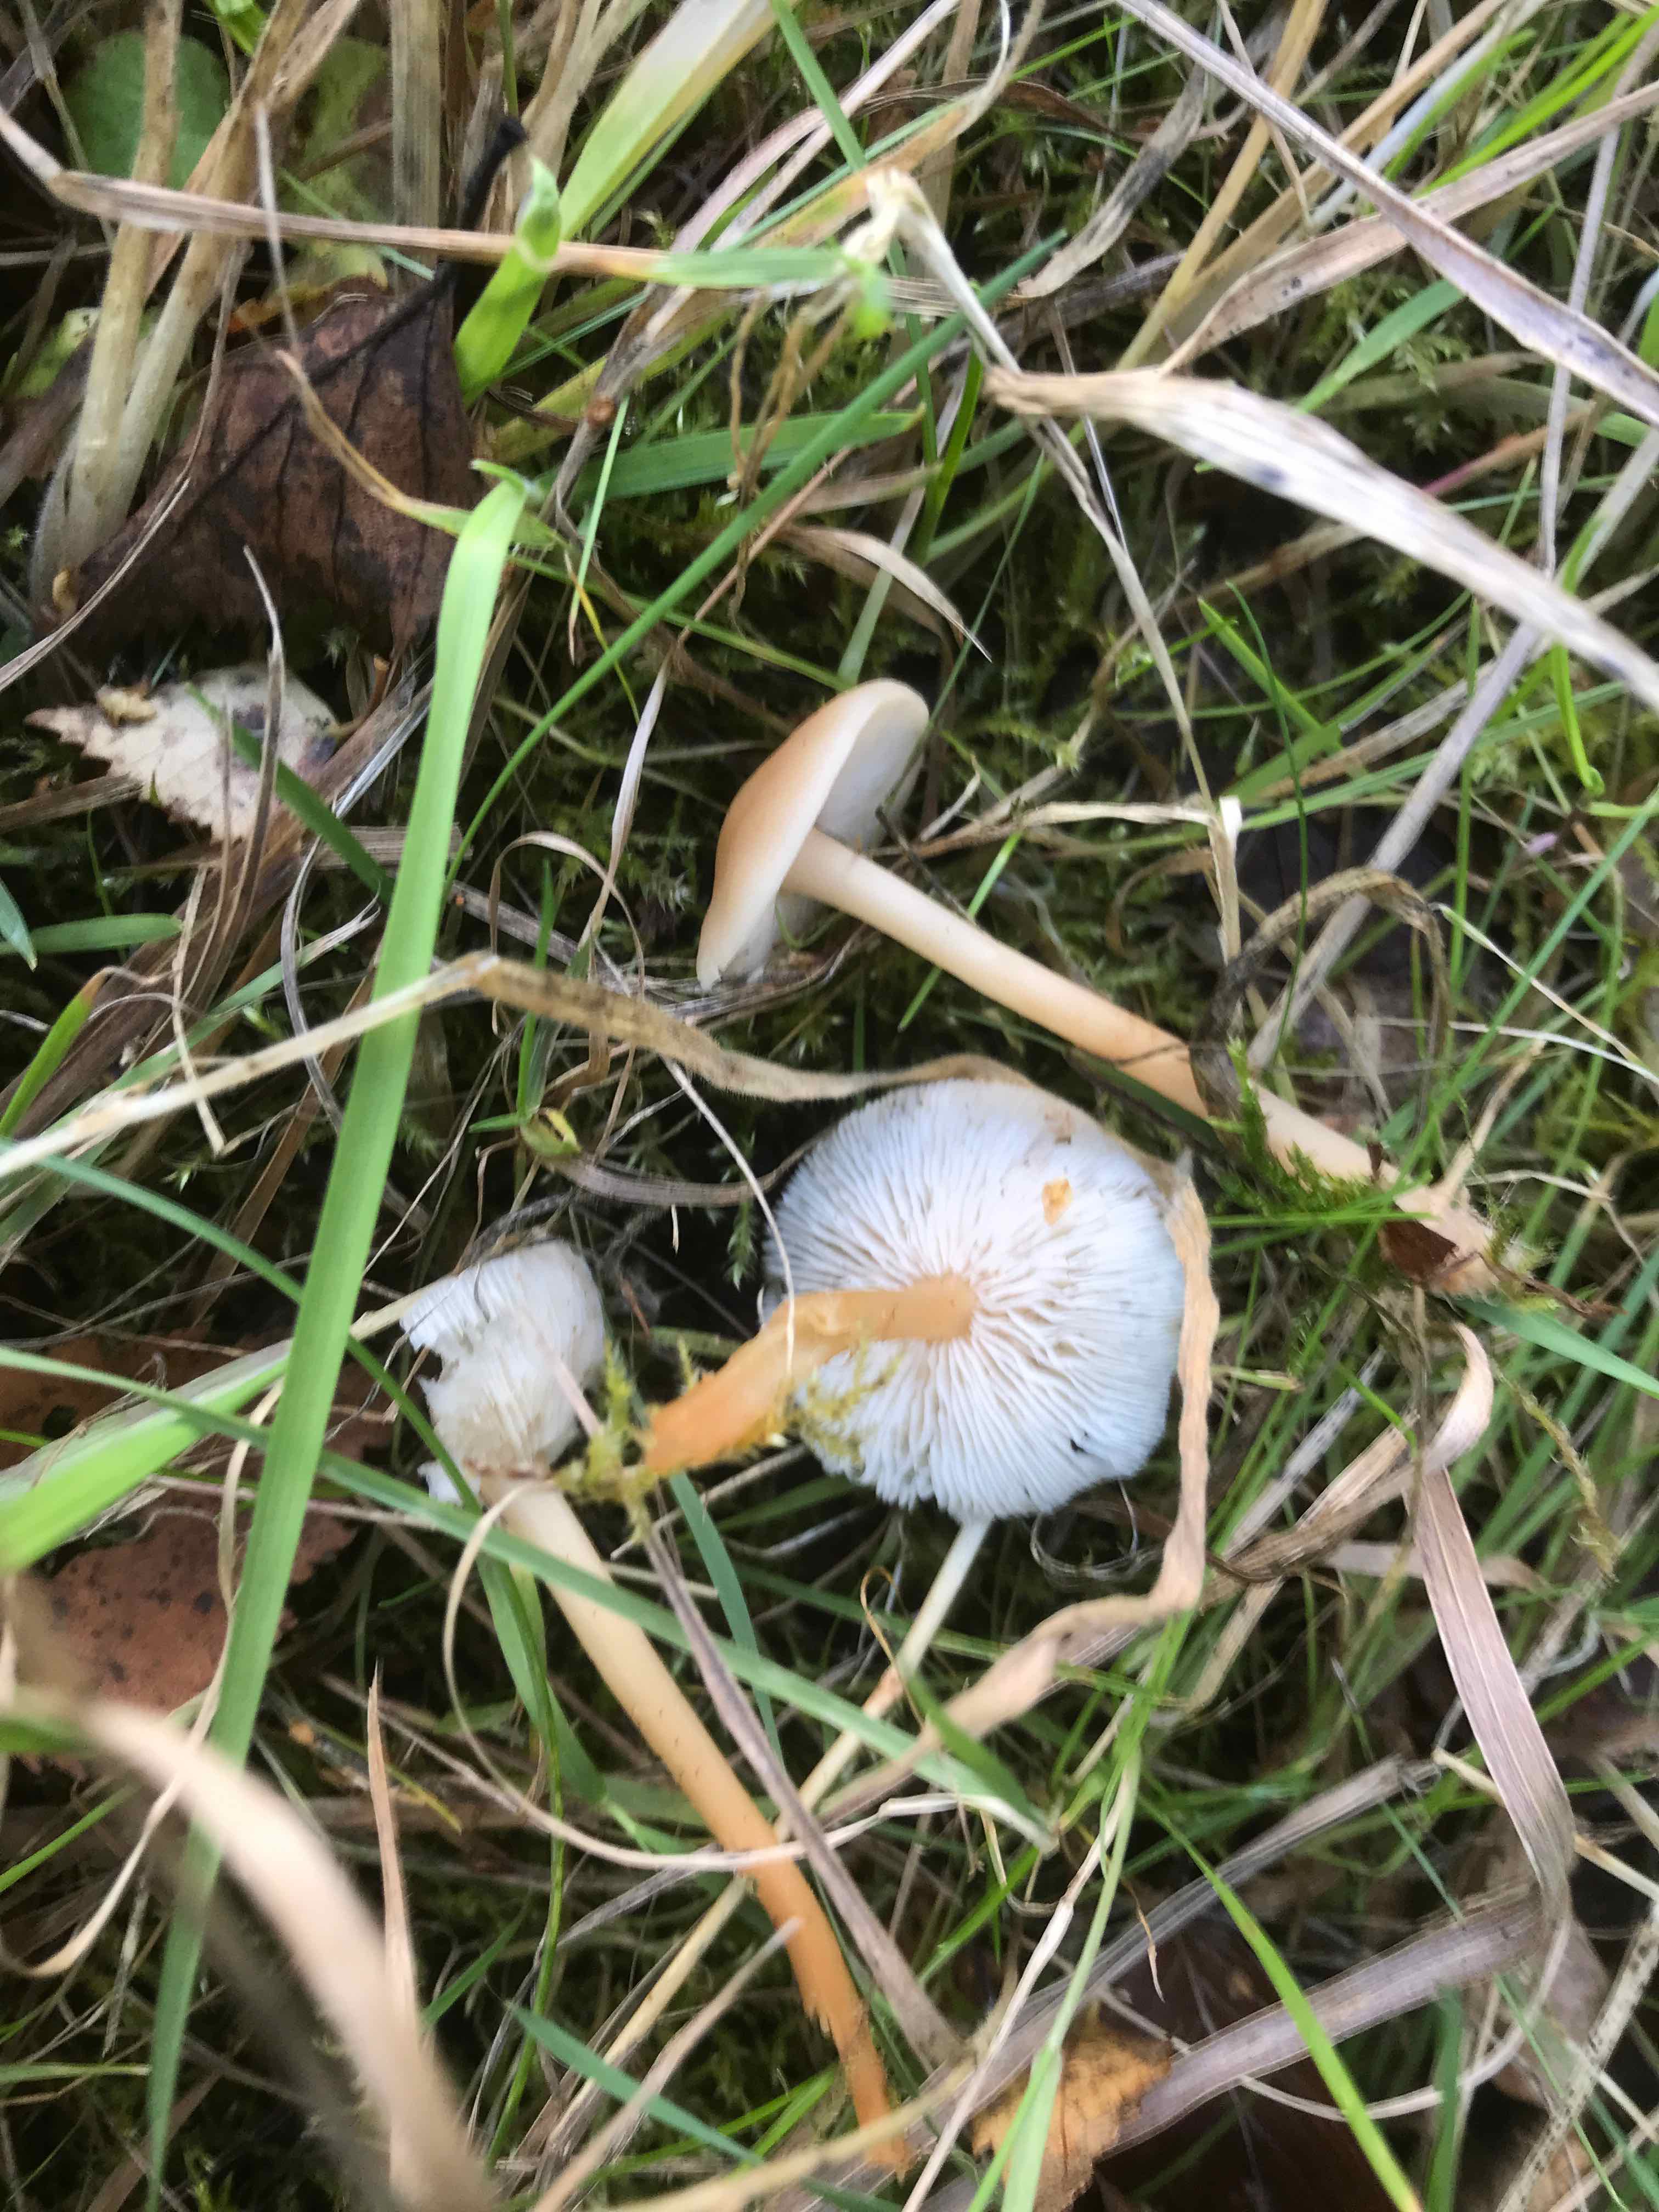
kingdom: Fungi
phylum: Basidiomycota
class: Agaricomycetes
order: Agaricales
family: Omphalotaceae
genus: Gymnopus
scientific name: Gymnopus
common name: fladhat
